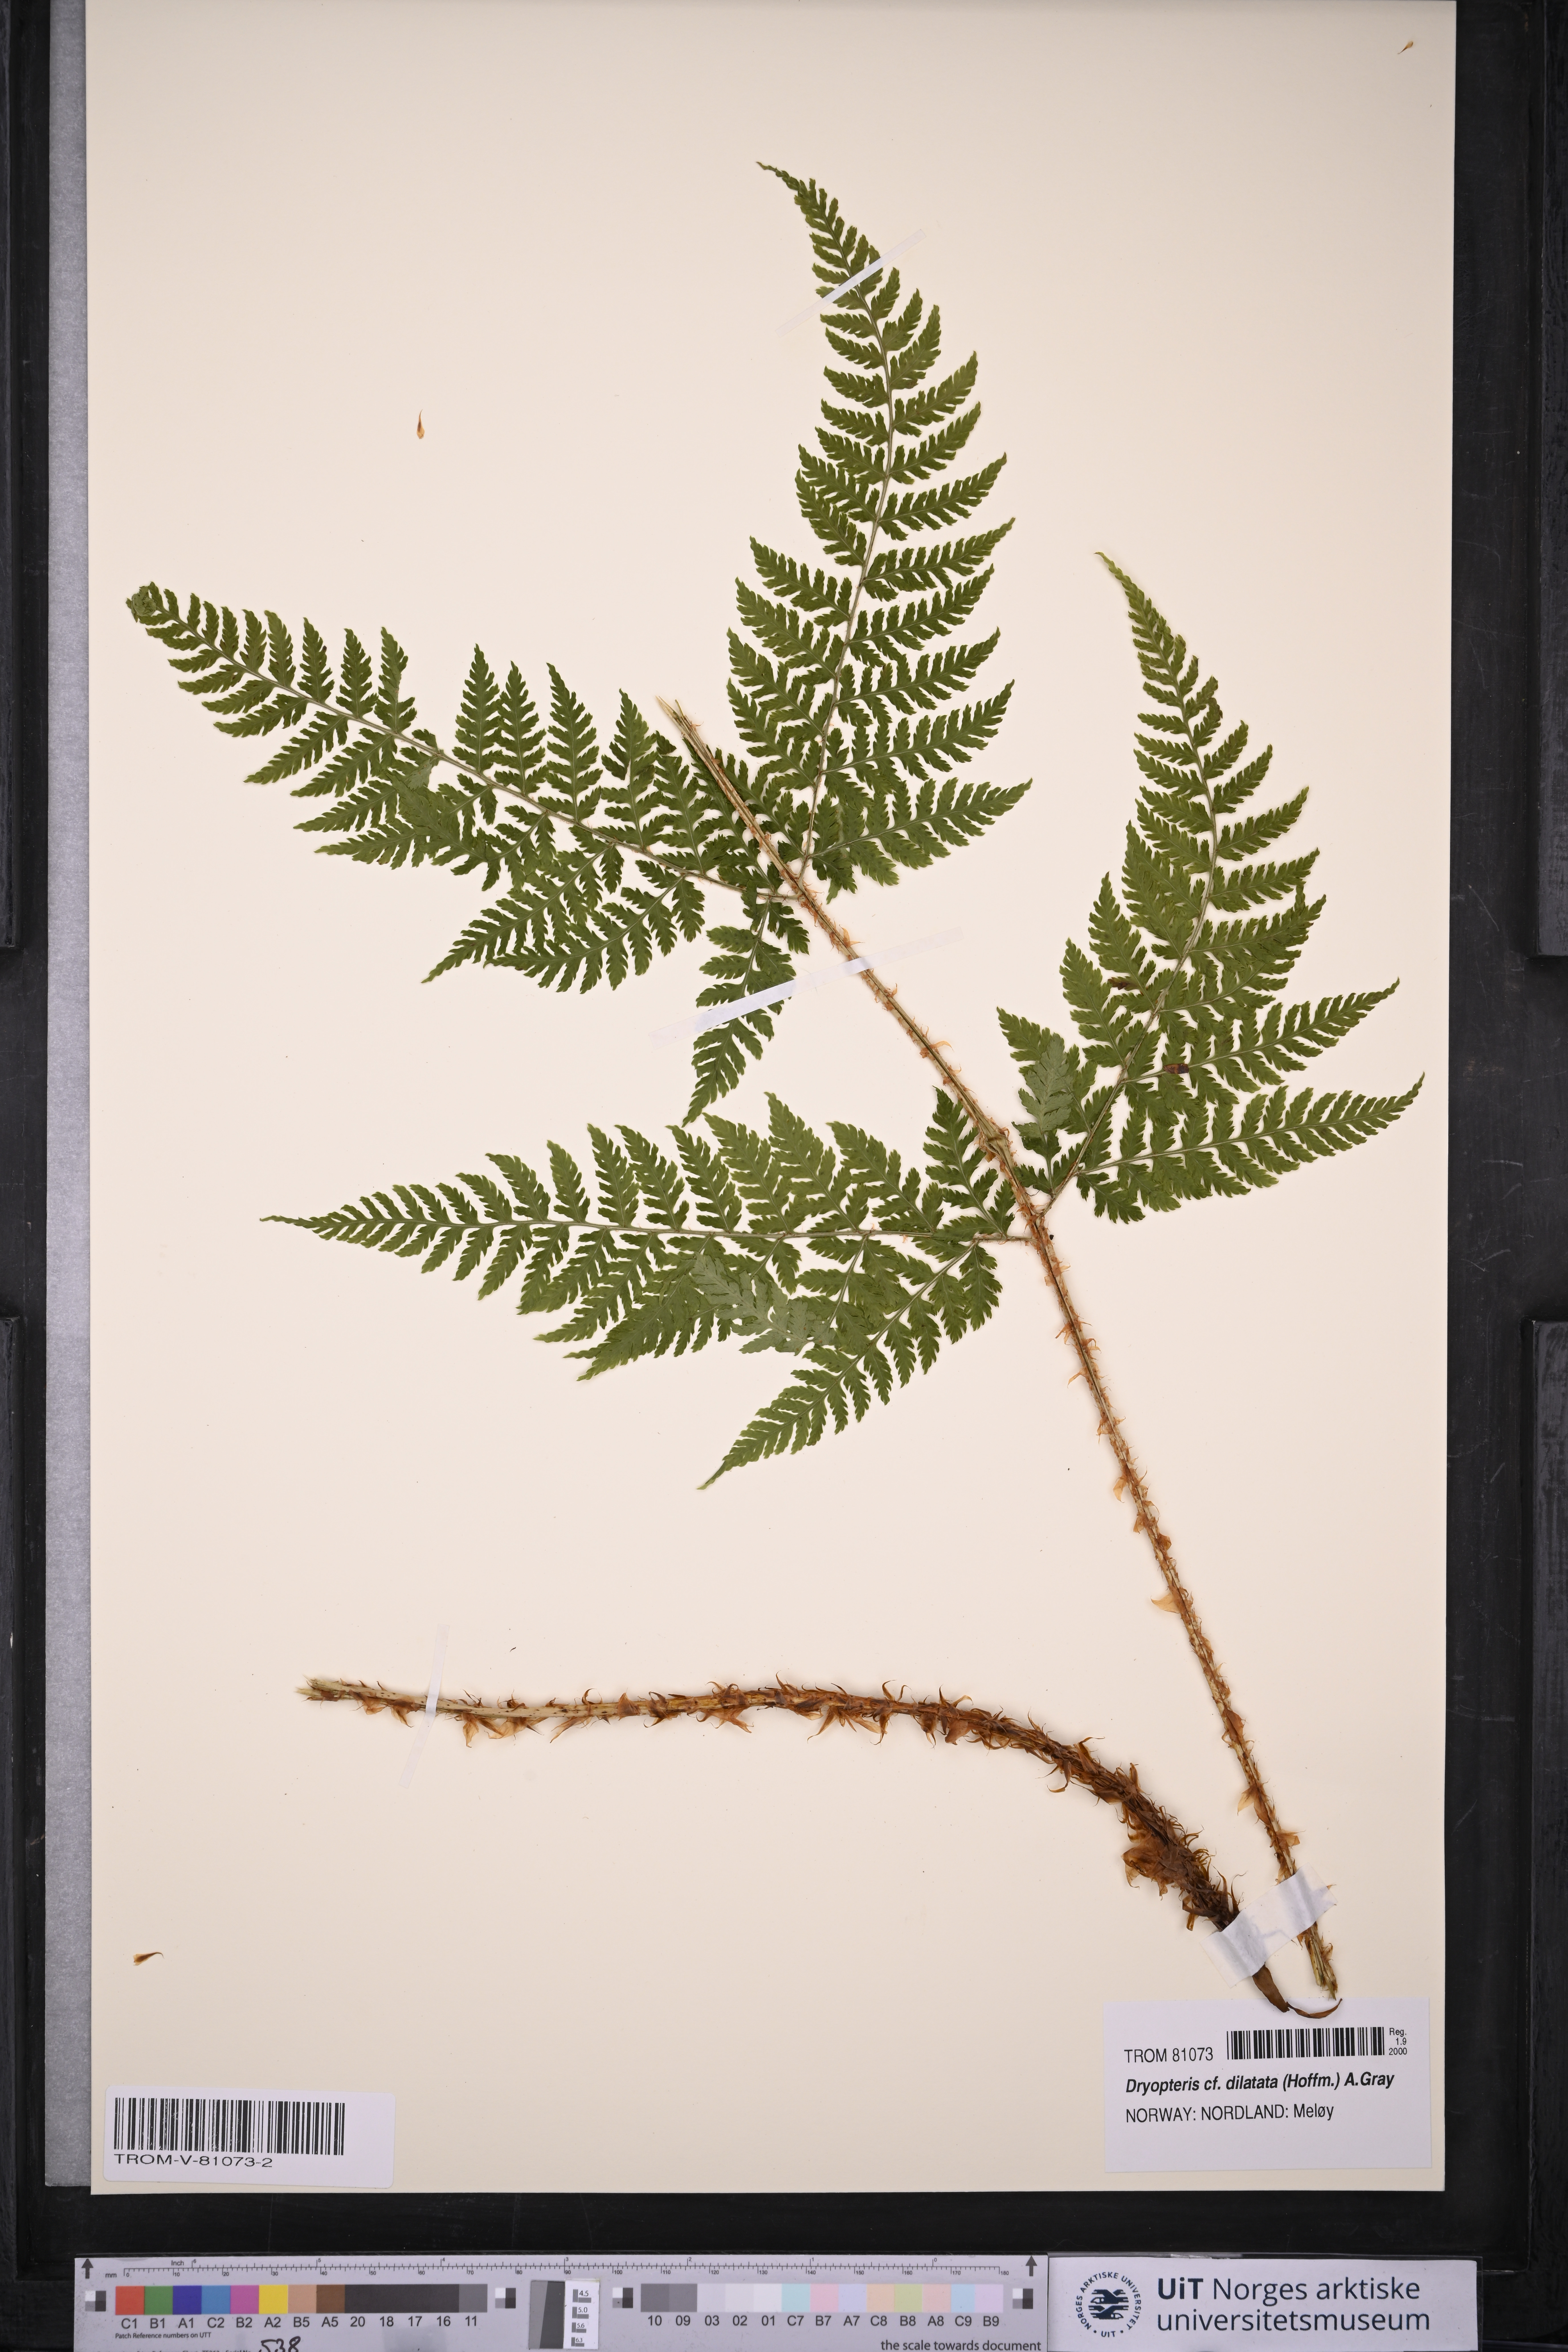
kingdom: Plantae
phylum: Tracheophyta
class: Polypodiopsida
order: Polypodiales
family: Dryopteridaceae
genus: Dryopteris
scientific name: Dryopteris dilatata
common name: Broad buckler-fern
